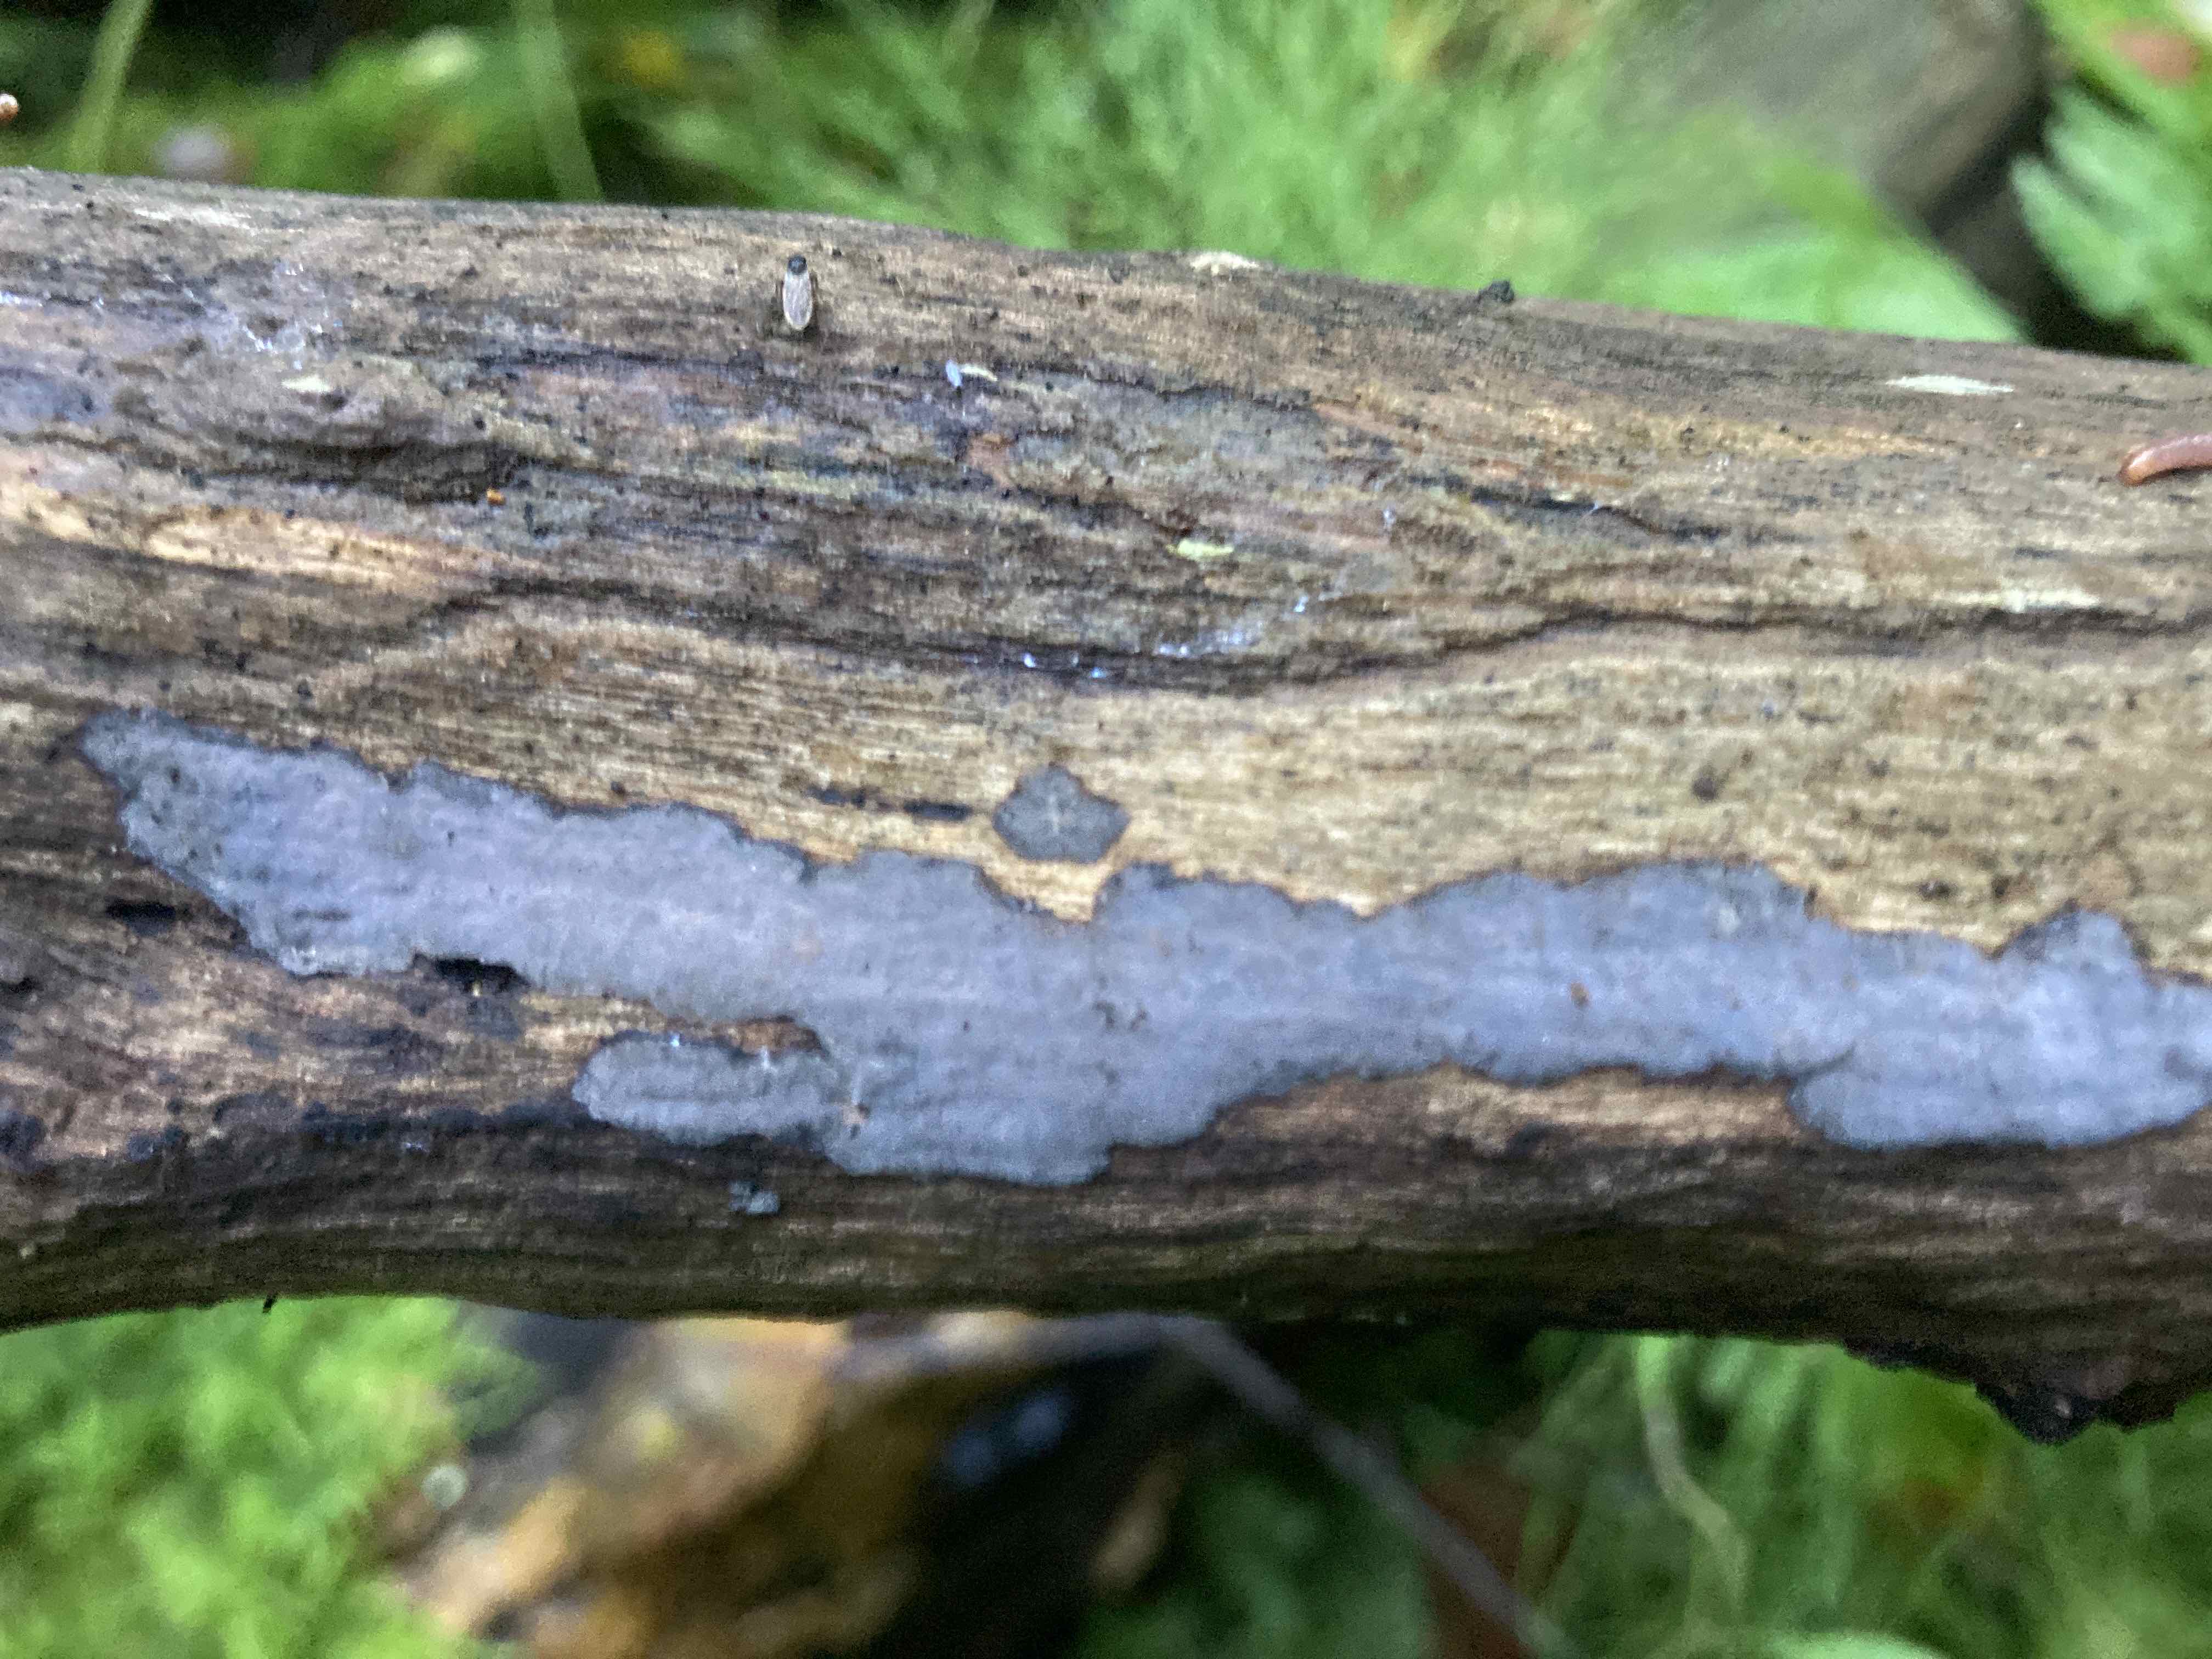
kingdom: Fungi
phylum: Basidiomycota
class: Agaricomycetes
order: Russulales
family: Peniophoraceae
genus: Peniophora
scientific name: Peniophora limitata
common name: mørkrandet voksskind
